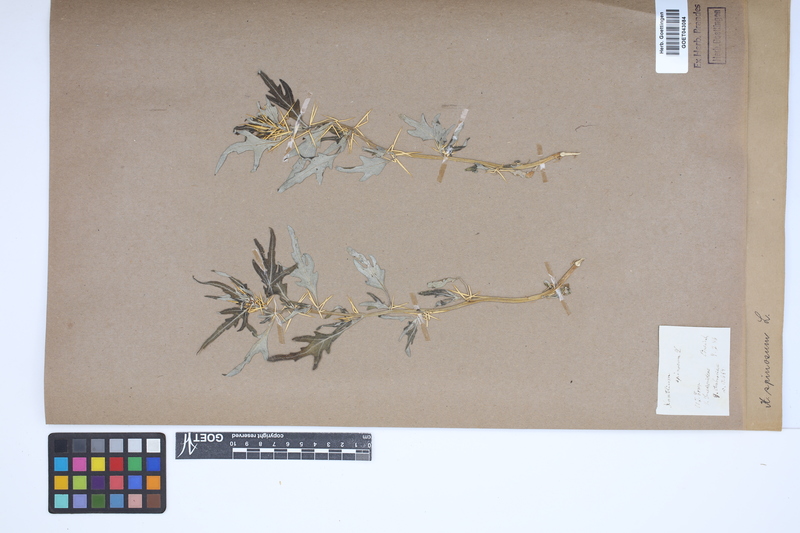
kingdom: Plantae
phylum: Tracheophyta
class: Magnoliopsida
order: Asterales
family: Asteraceae
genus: Xanthium
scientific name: Xanthium spinosum
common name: Spiny cocklebur
